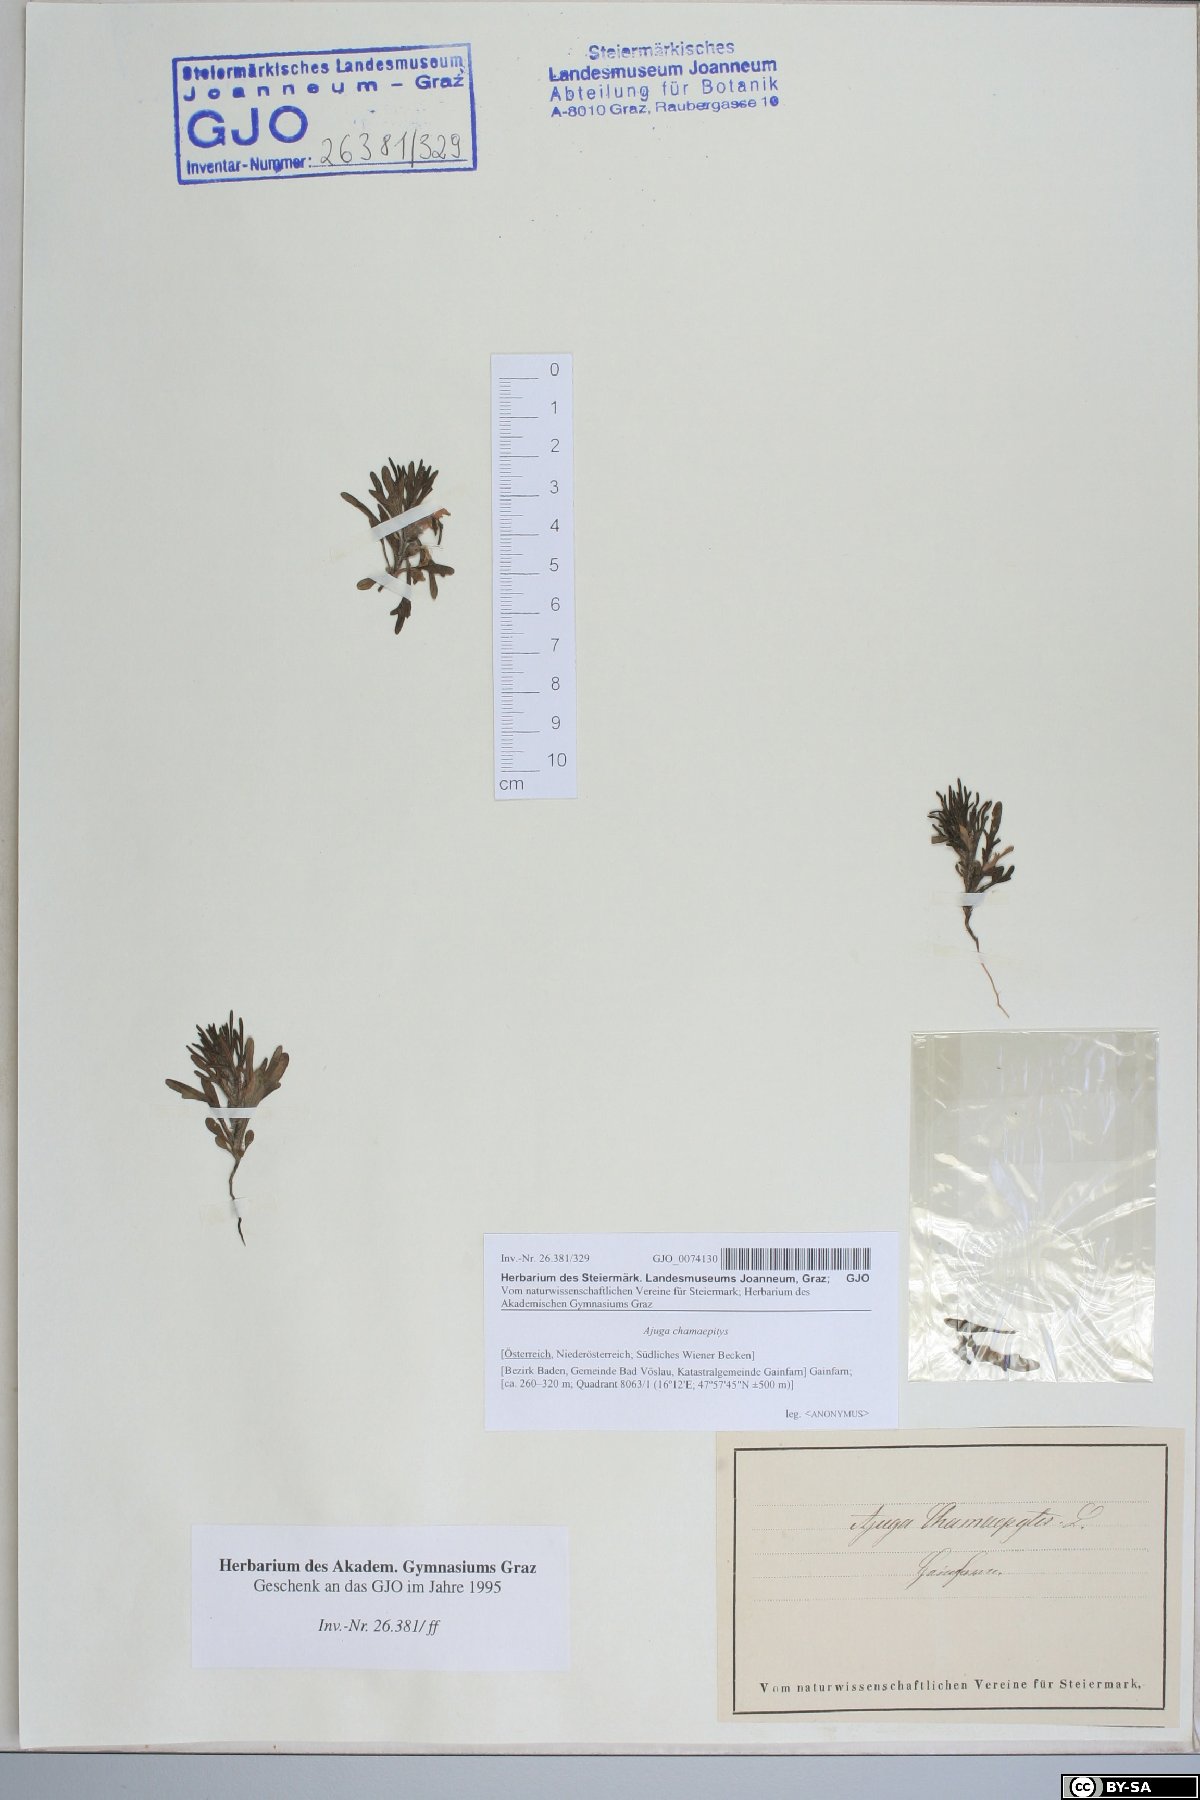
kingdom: Plantae
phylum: Tracheophyta
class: Magnoliopsida
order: Lamiales
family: Lamiaceae
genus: Ajuga
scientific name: Ajuga chamaepitys
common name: Ground-pine
